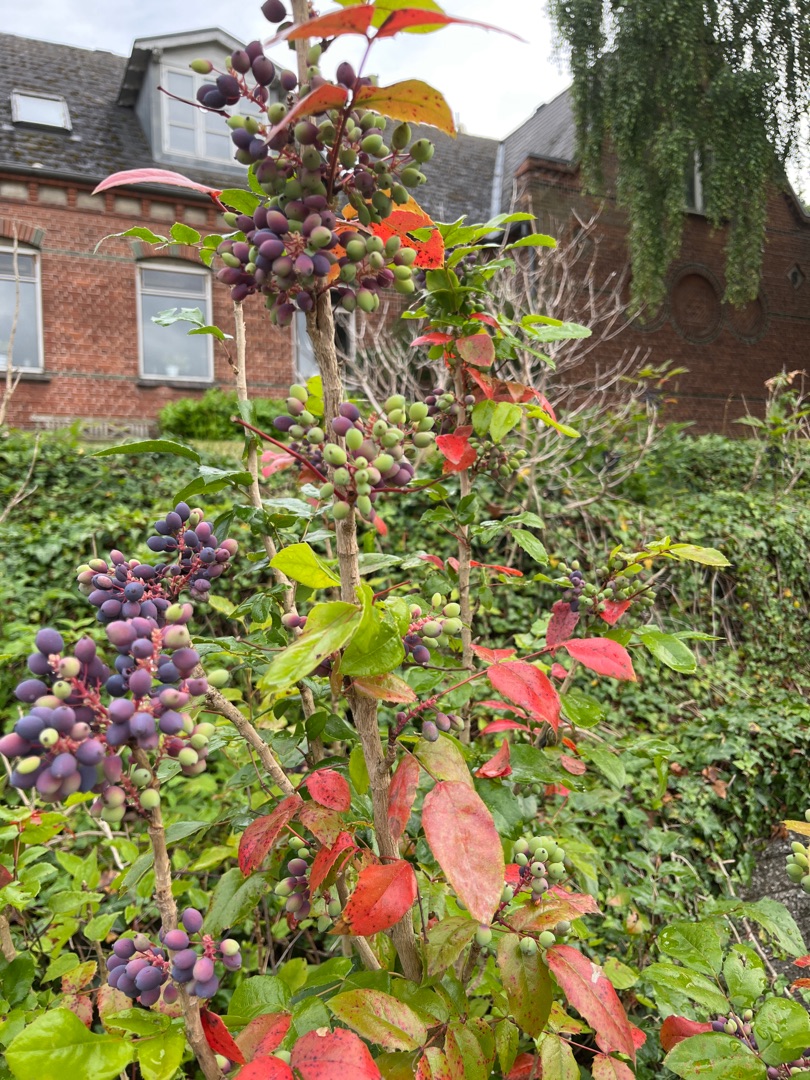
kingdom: Plantae
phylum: Tracheophyta
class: Magnoliopsida
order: Ranunculales
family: Berberidaceae
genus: Mahonia
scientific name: Mahonia aquifolium
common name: Almindelig mahonie
